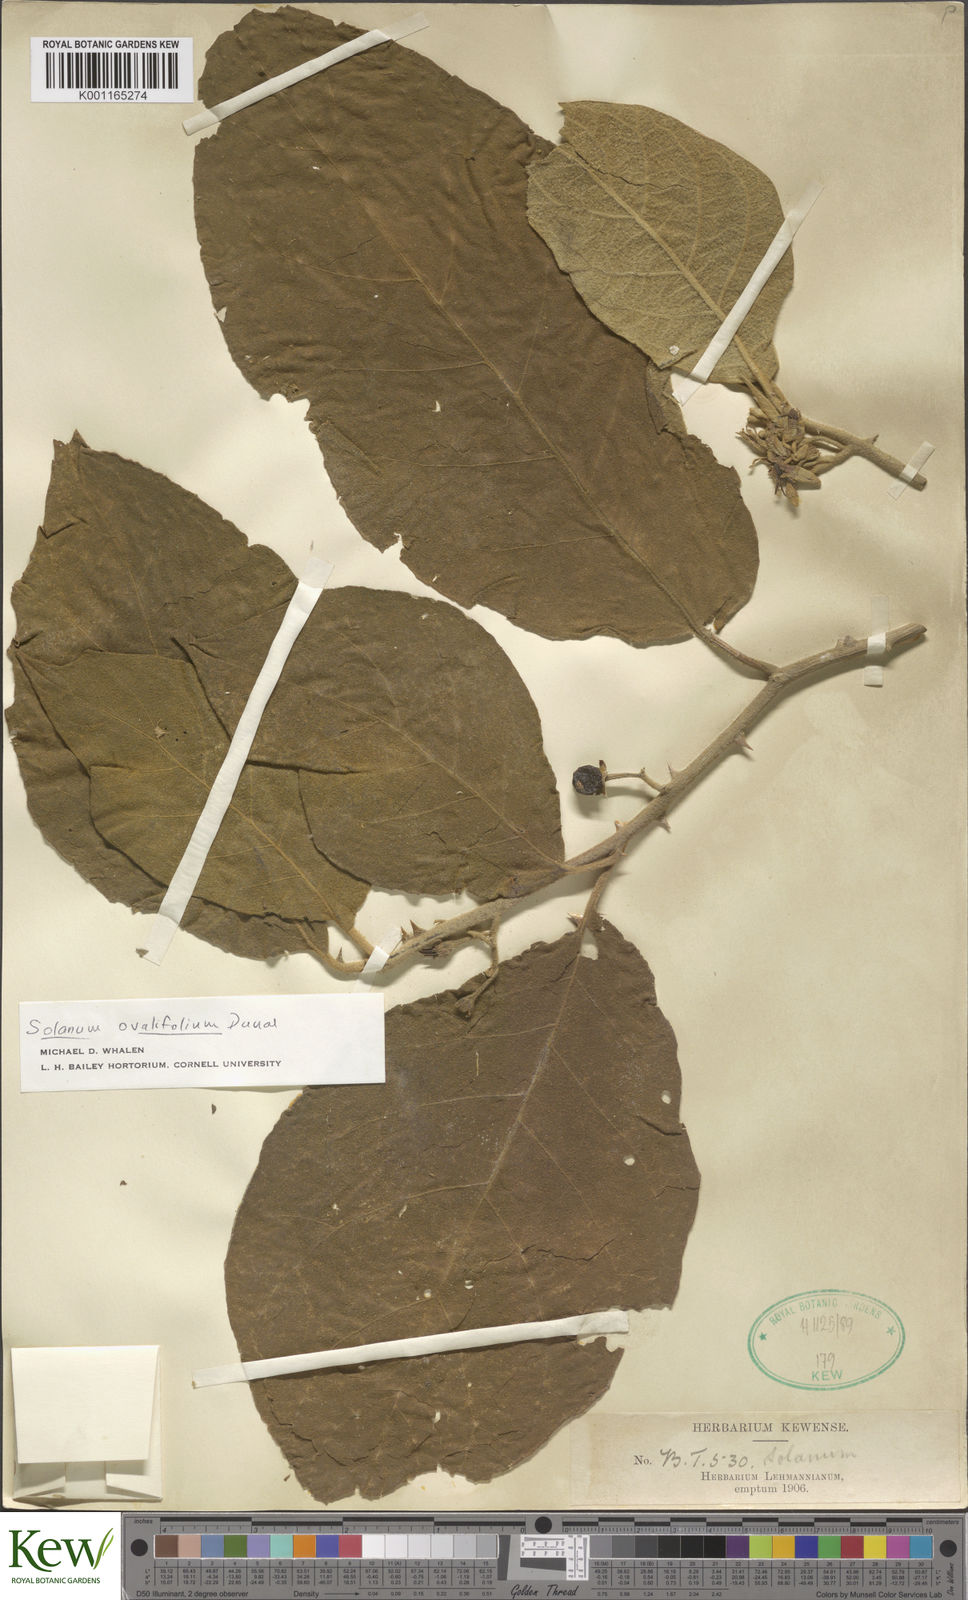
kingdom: Plantae
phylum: Tracheophyta
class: Magnoliopsida
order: Solanales
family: Solanaceae
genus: Solanum
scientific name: Solanum ovalifolium
